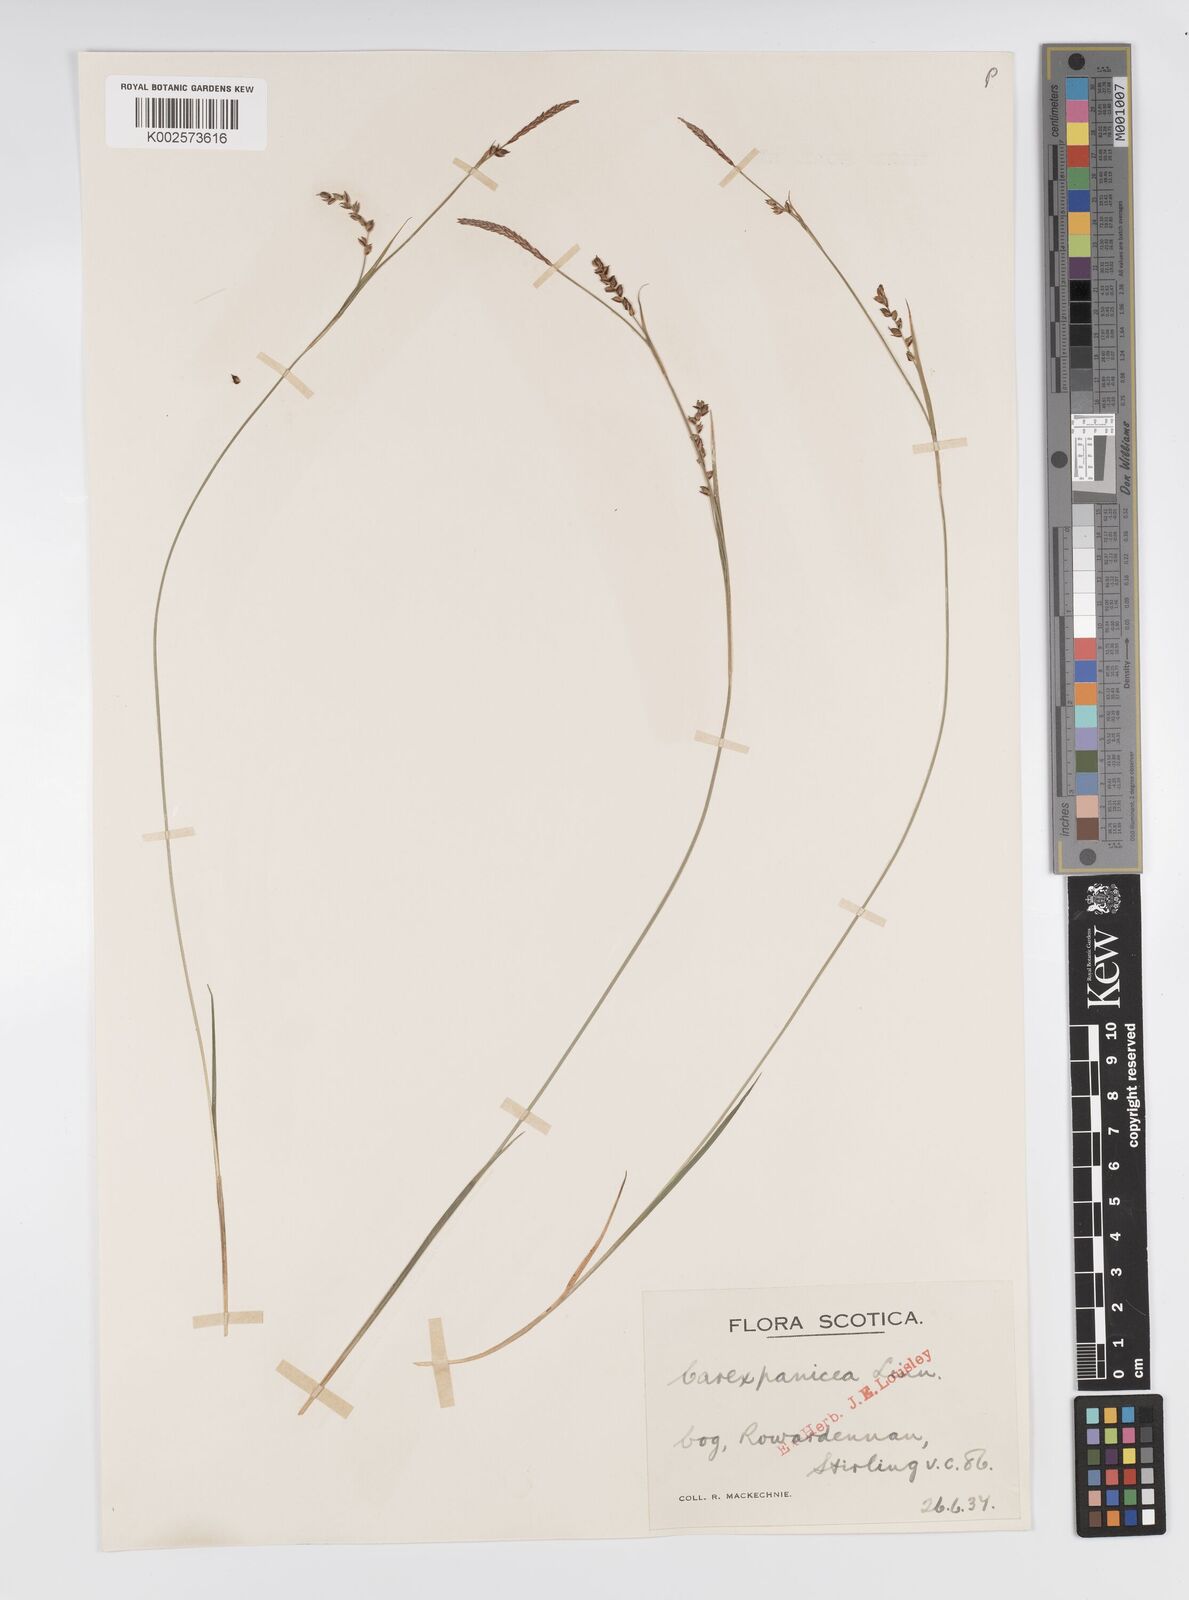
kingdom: Plantae
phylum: Tracheophyta
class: Liliopsida
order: Poales
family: Cyperaceae
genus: Carex
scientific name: Carex panicea
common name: Carnation sedge
